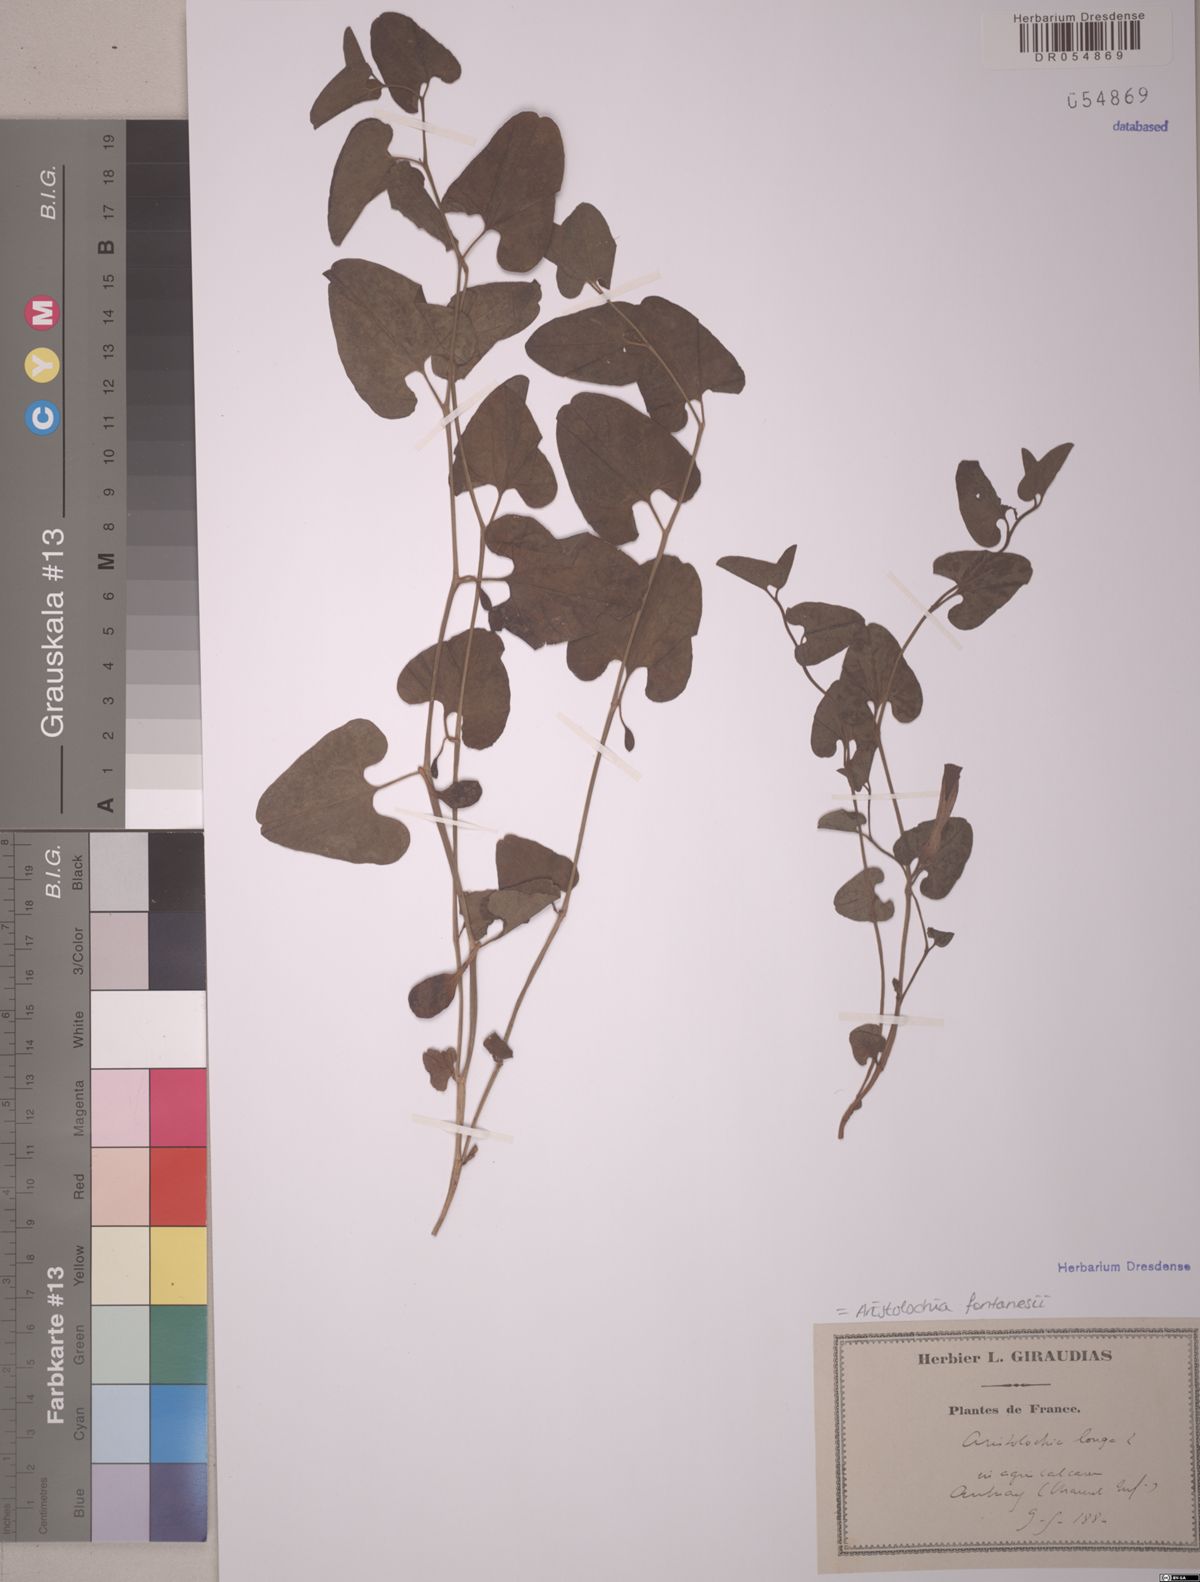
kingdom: Plantae
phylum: Tracheophyta
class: Magnoliopsida
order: Piperales
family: Aristolochiaceae
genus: Aristolochia
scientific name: Aristolochia fontanesii
